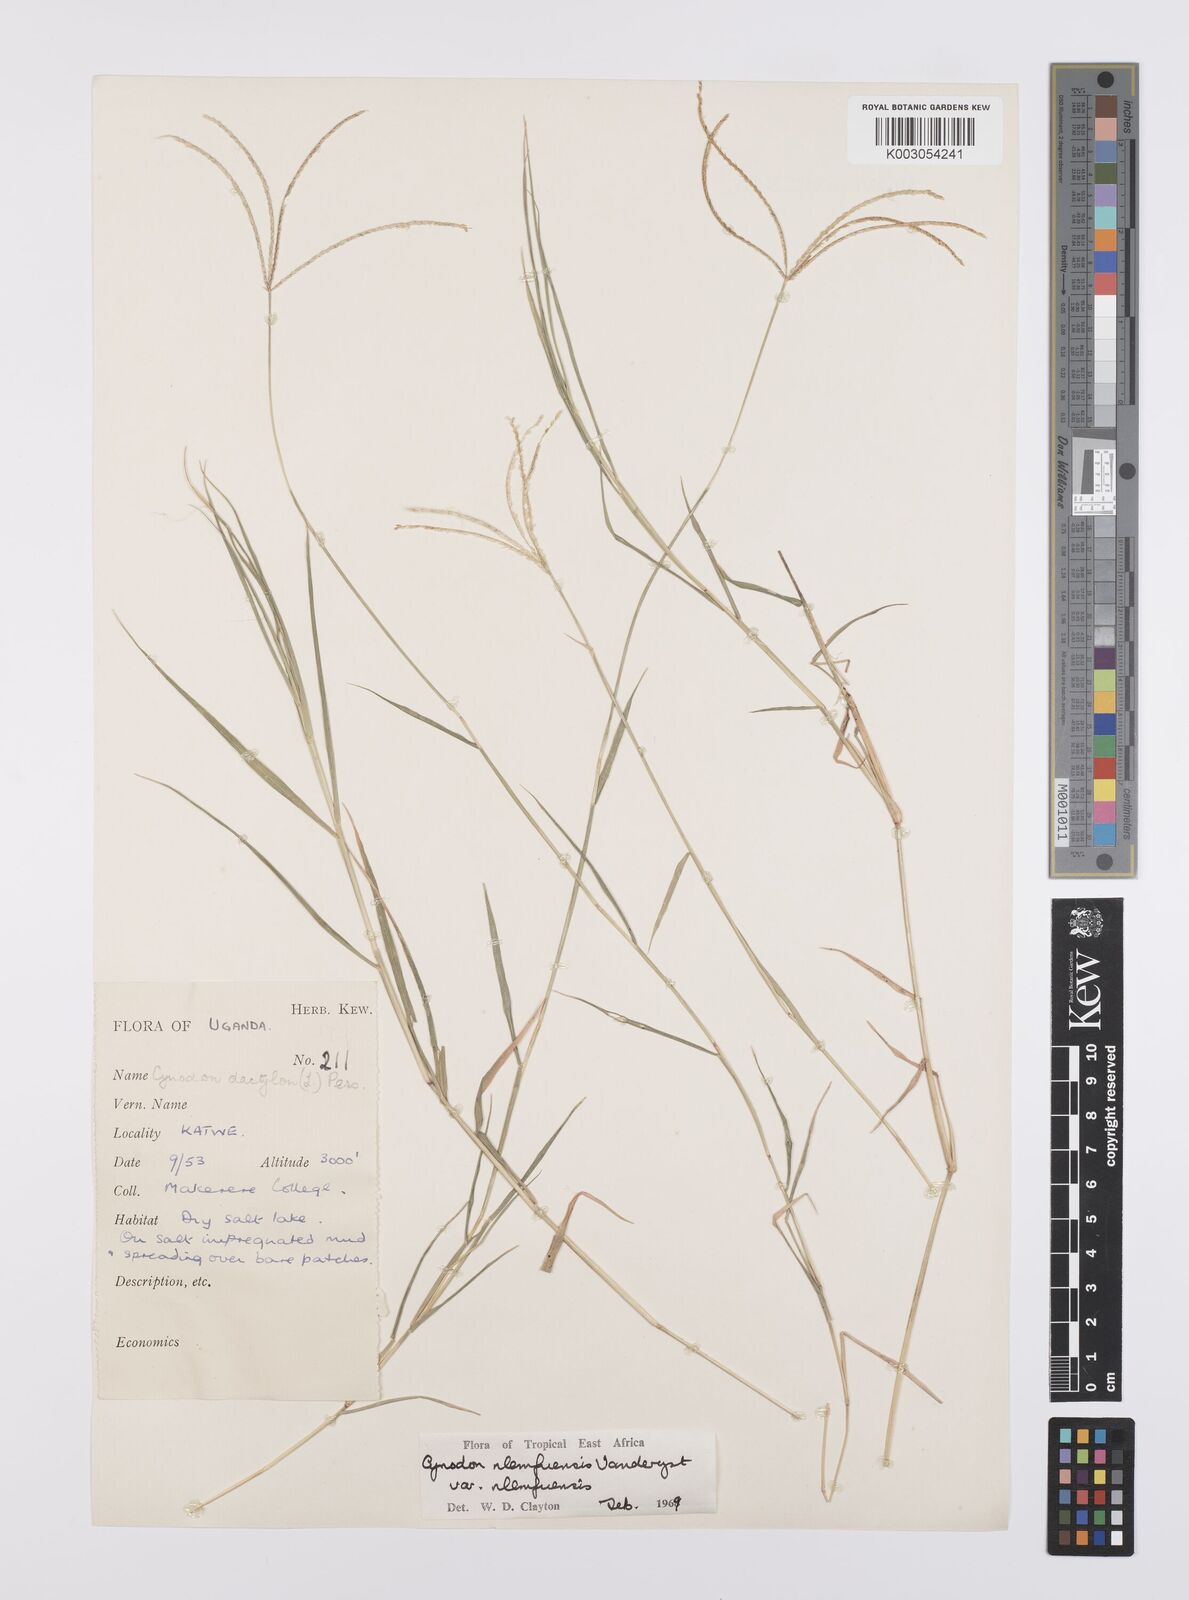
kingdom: Plantae
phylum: Tracheophyta
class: Liliopsida
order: Poales
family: Poaceae
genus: Cynodon
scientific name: Cynodon nlemfuensis
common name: African bermudagrass
